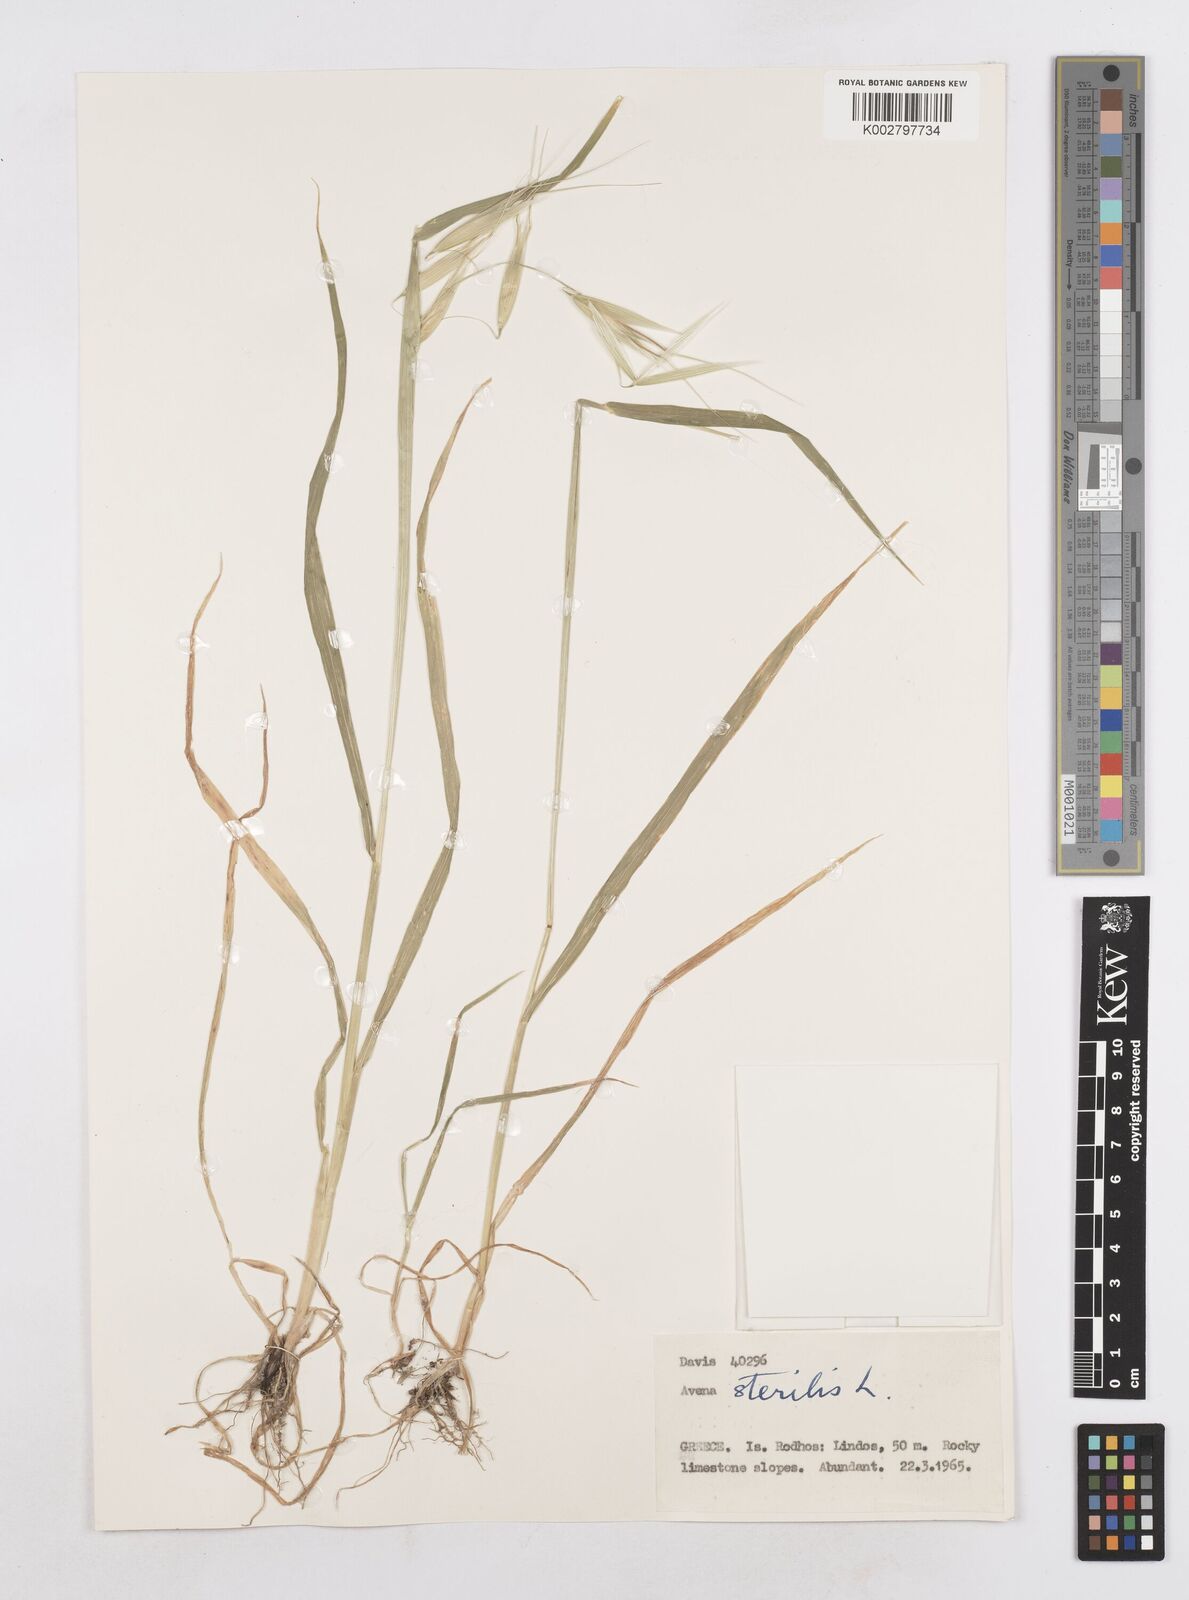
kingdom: Plantae
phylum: Tracheophyta
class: Liliopsida
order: Poales
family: Poaceae
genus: Avena
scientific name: Avena sterilis
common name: Animated oat
